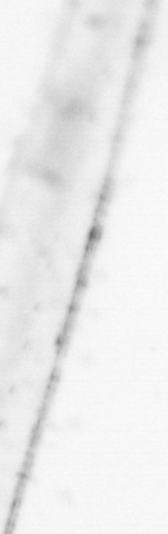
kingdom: Animalia
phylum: Chaetognatha
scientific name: Chaetognatha
